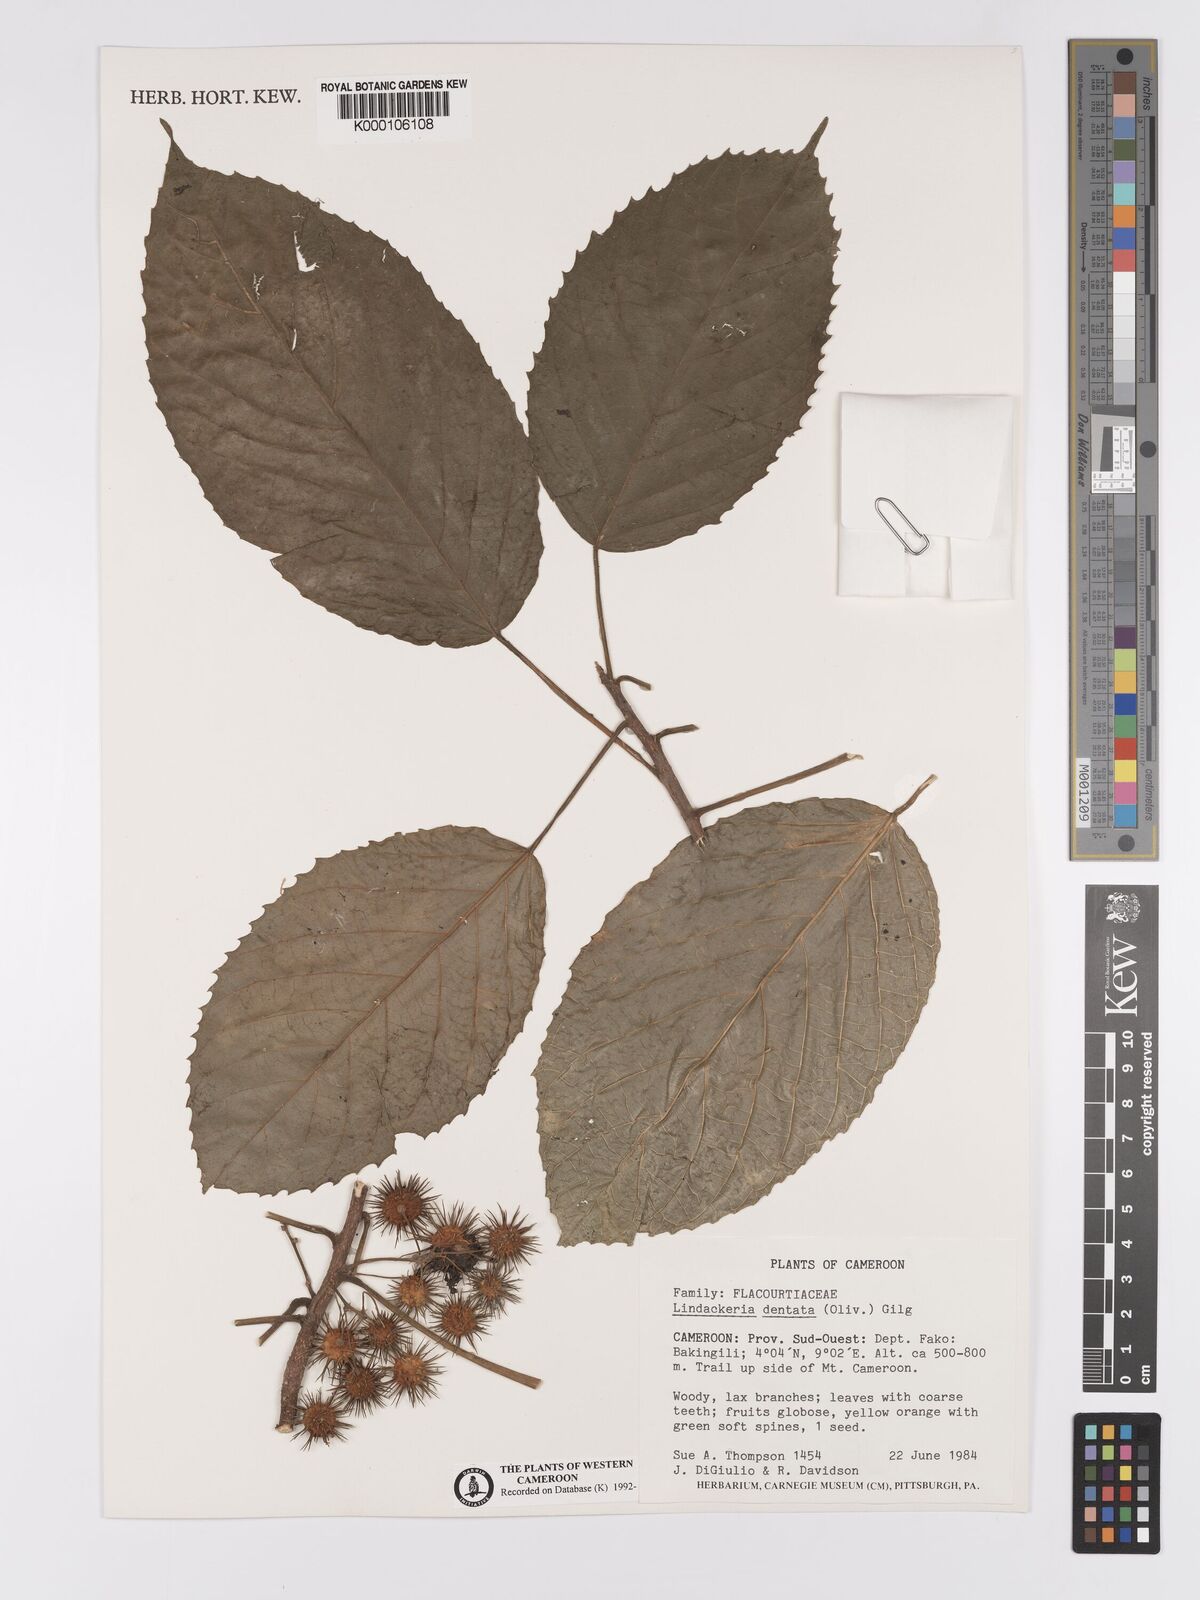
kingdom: Plantae
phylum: Tracheophyta
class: Magnoliopsida
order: Malpighiales
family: Achariaceae
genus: Lindackeria
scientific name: Lindackeria dentata
